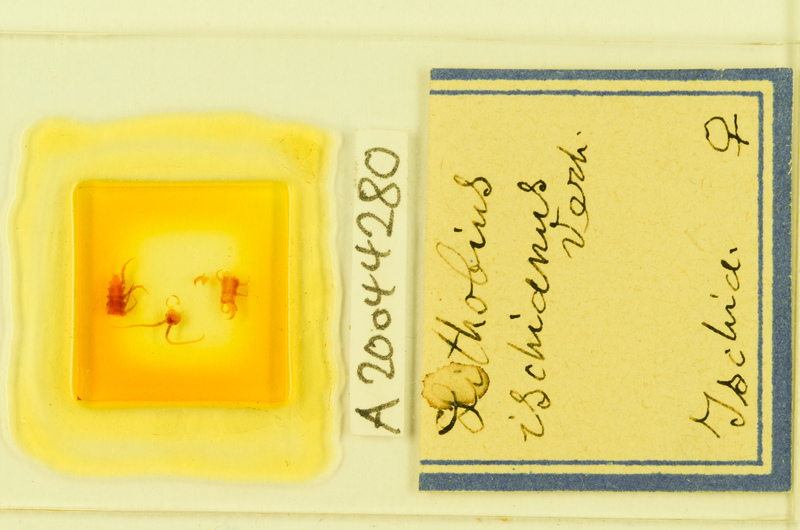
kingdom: Animalia
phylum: Arthropoda
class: Chilopoda
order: Lithobiomorpha
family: Lithobiidae
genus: Lithobius
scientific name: Lithobius cassinensis
